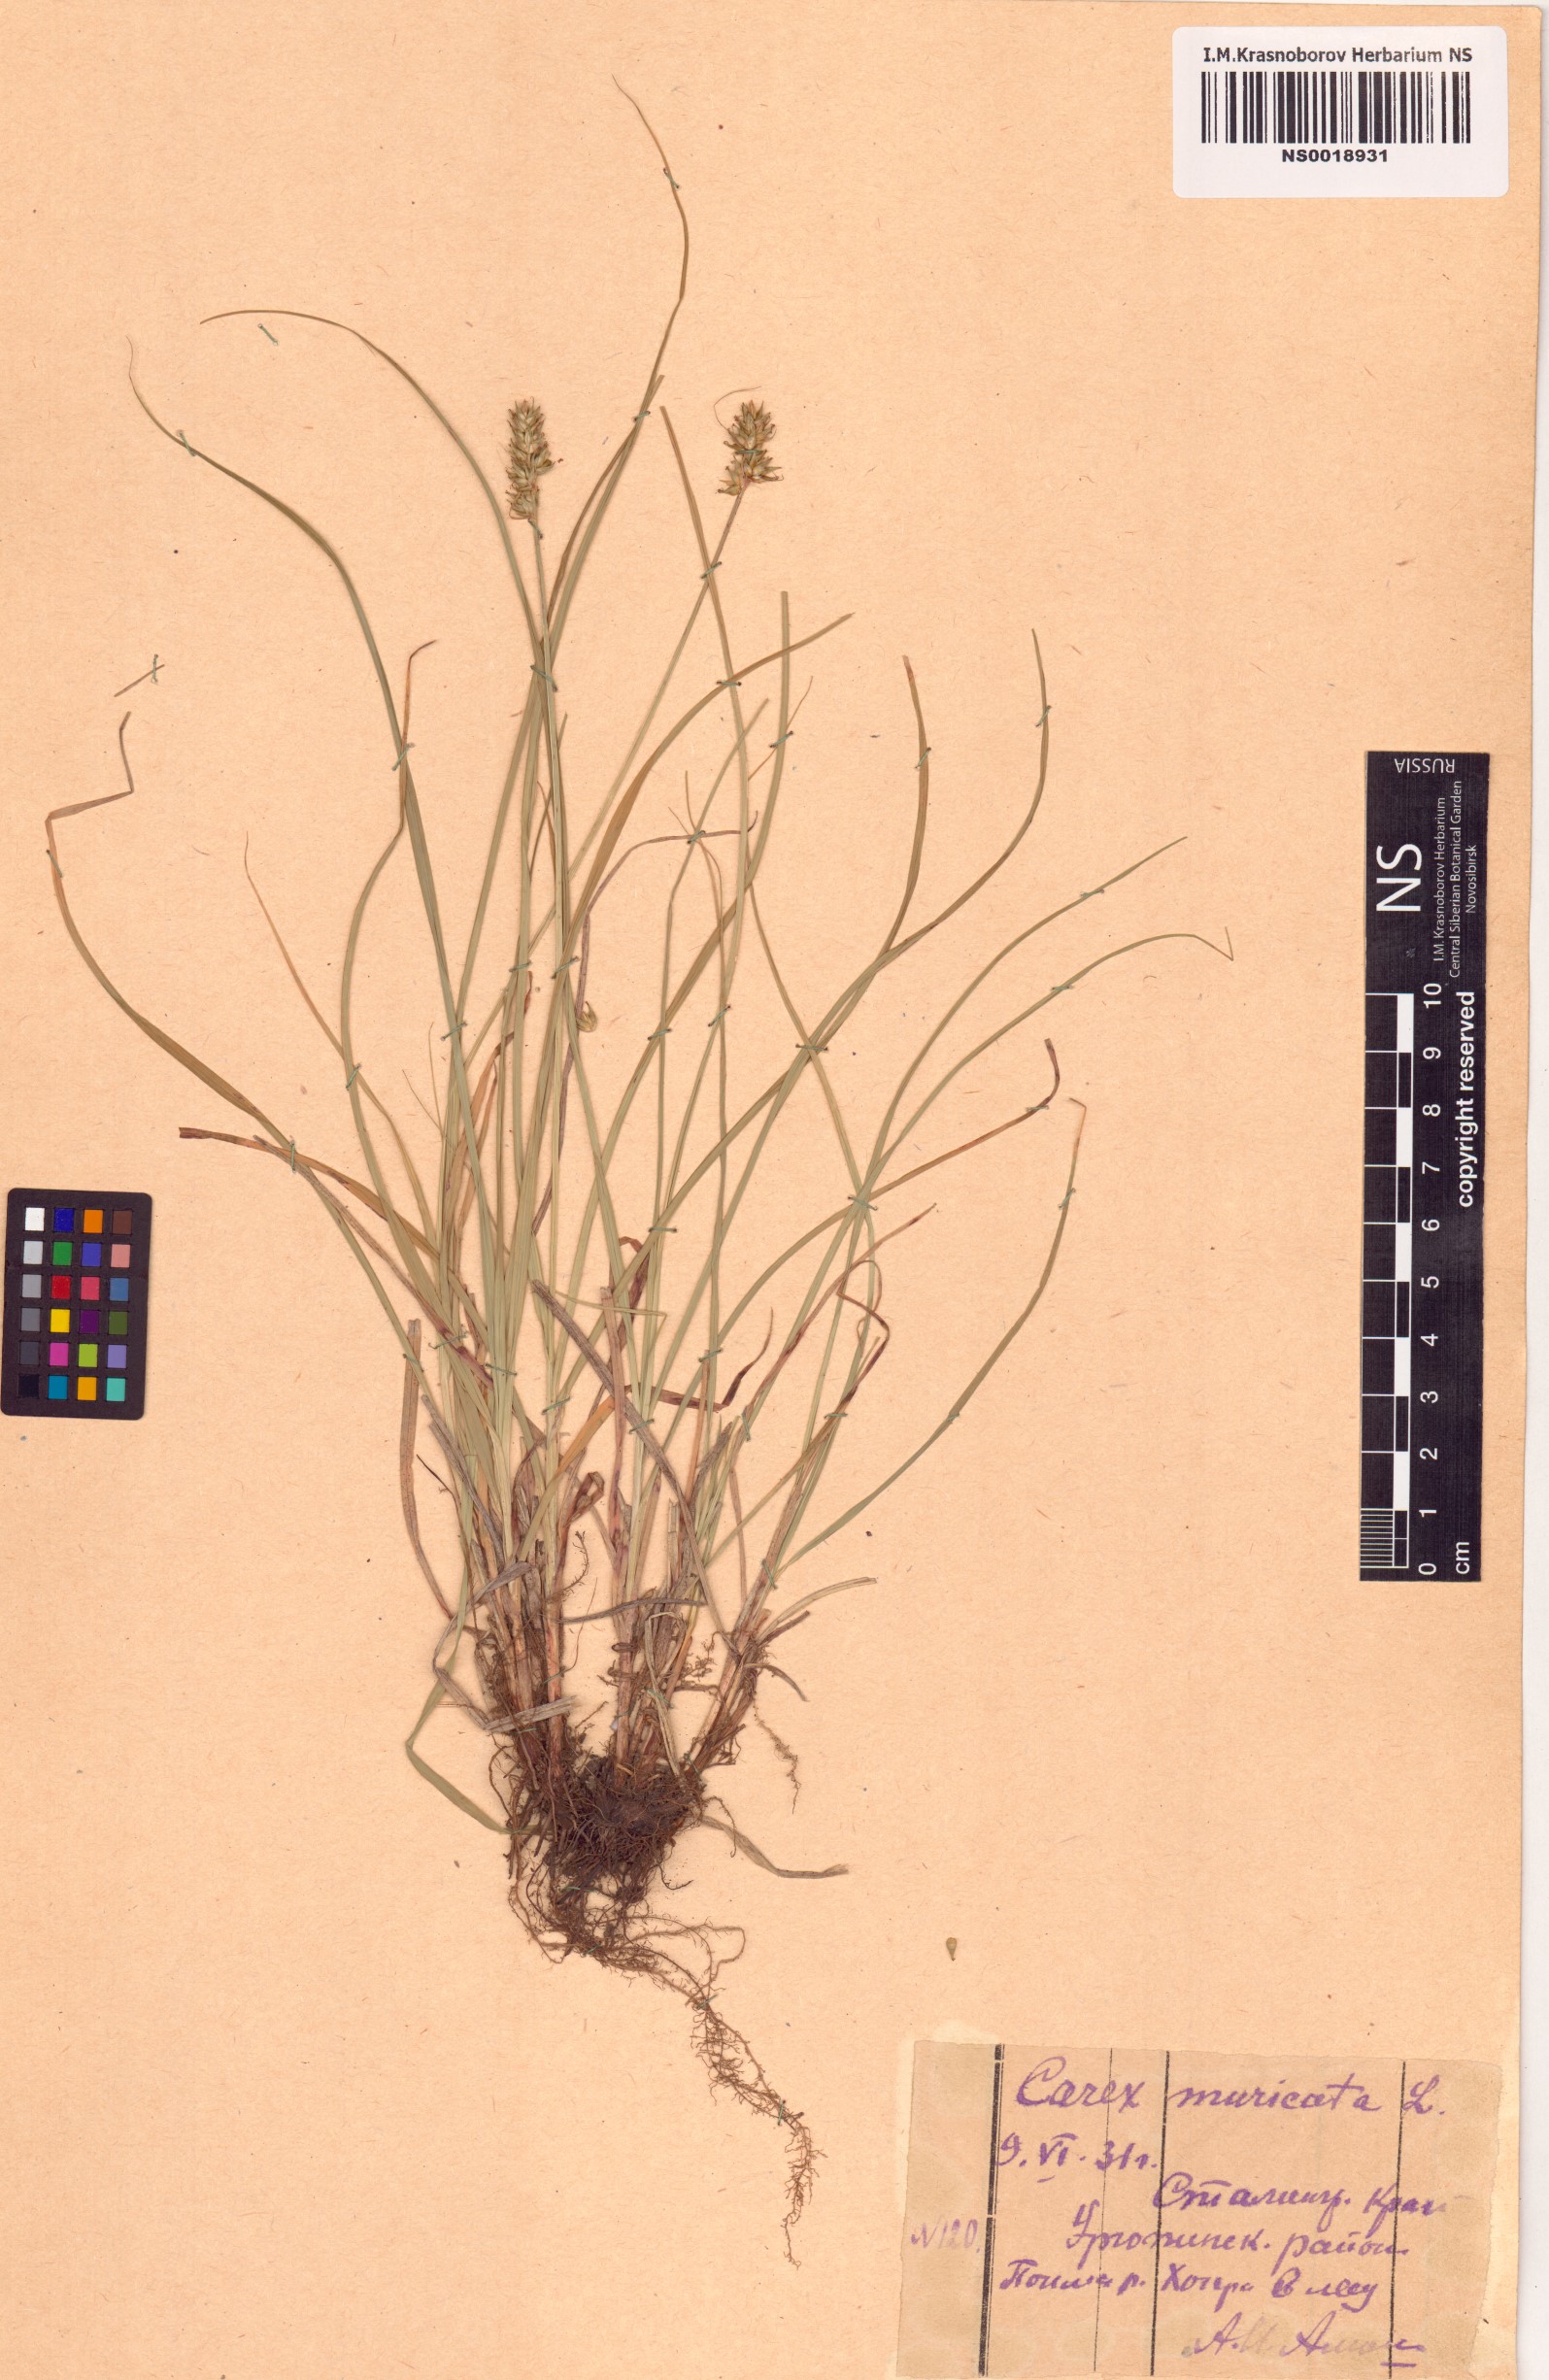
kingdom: Plantae
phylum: Tracheophyta
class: Liliopsida
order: Poales
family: Cyperaceae
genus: Carex
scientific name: Carex muricata
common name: Rough sedge
